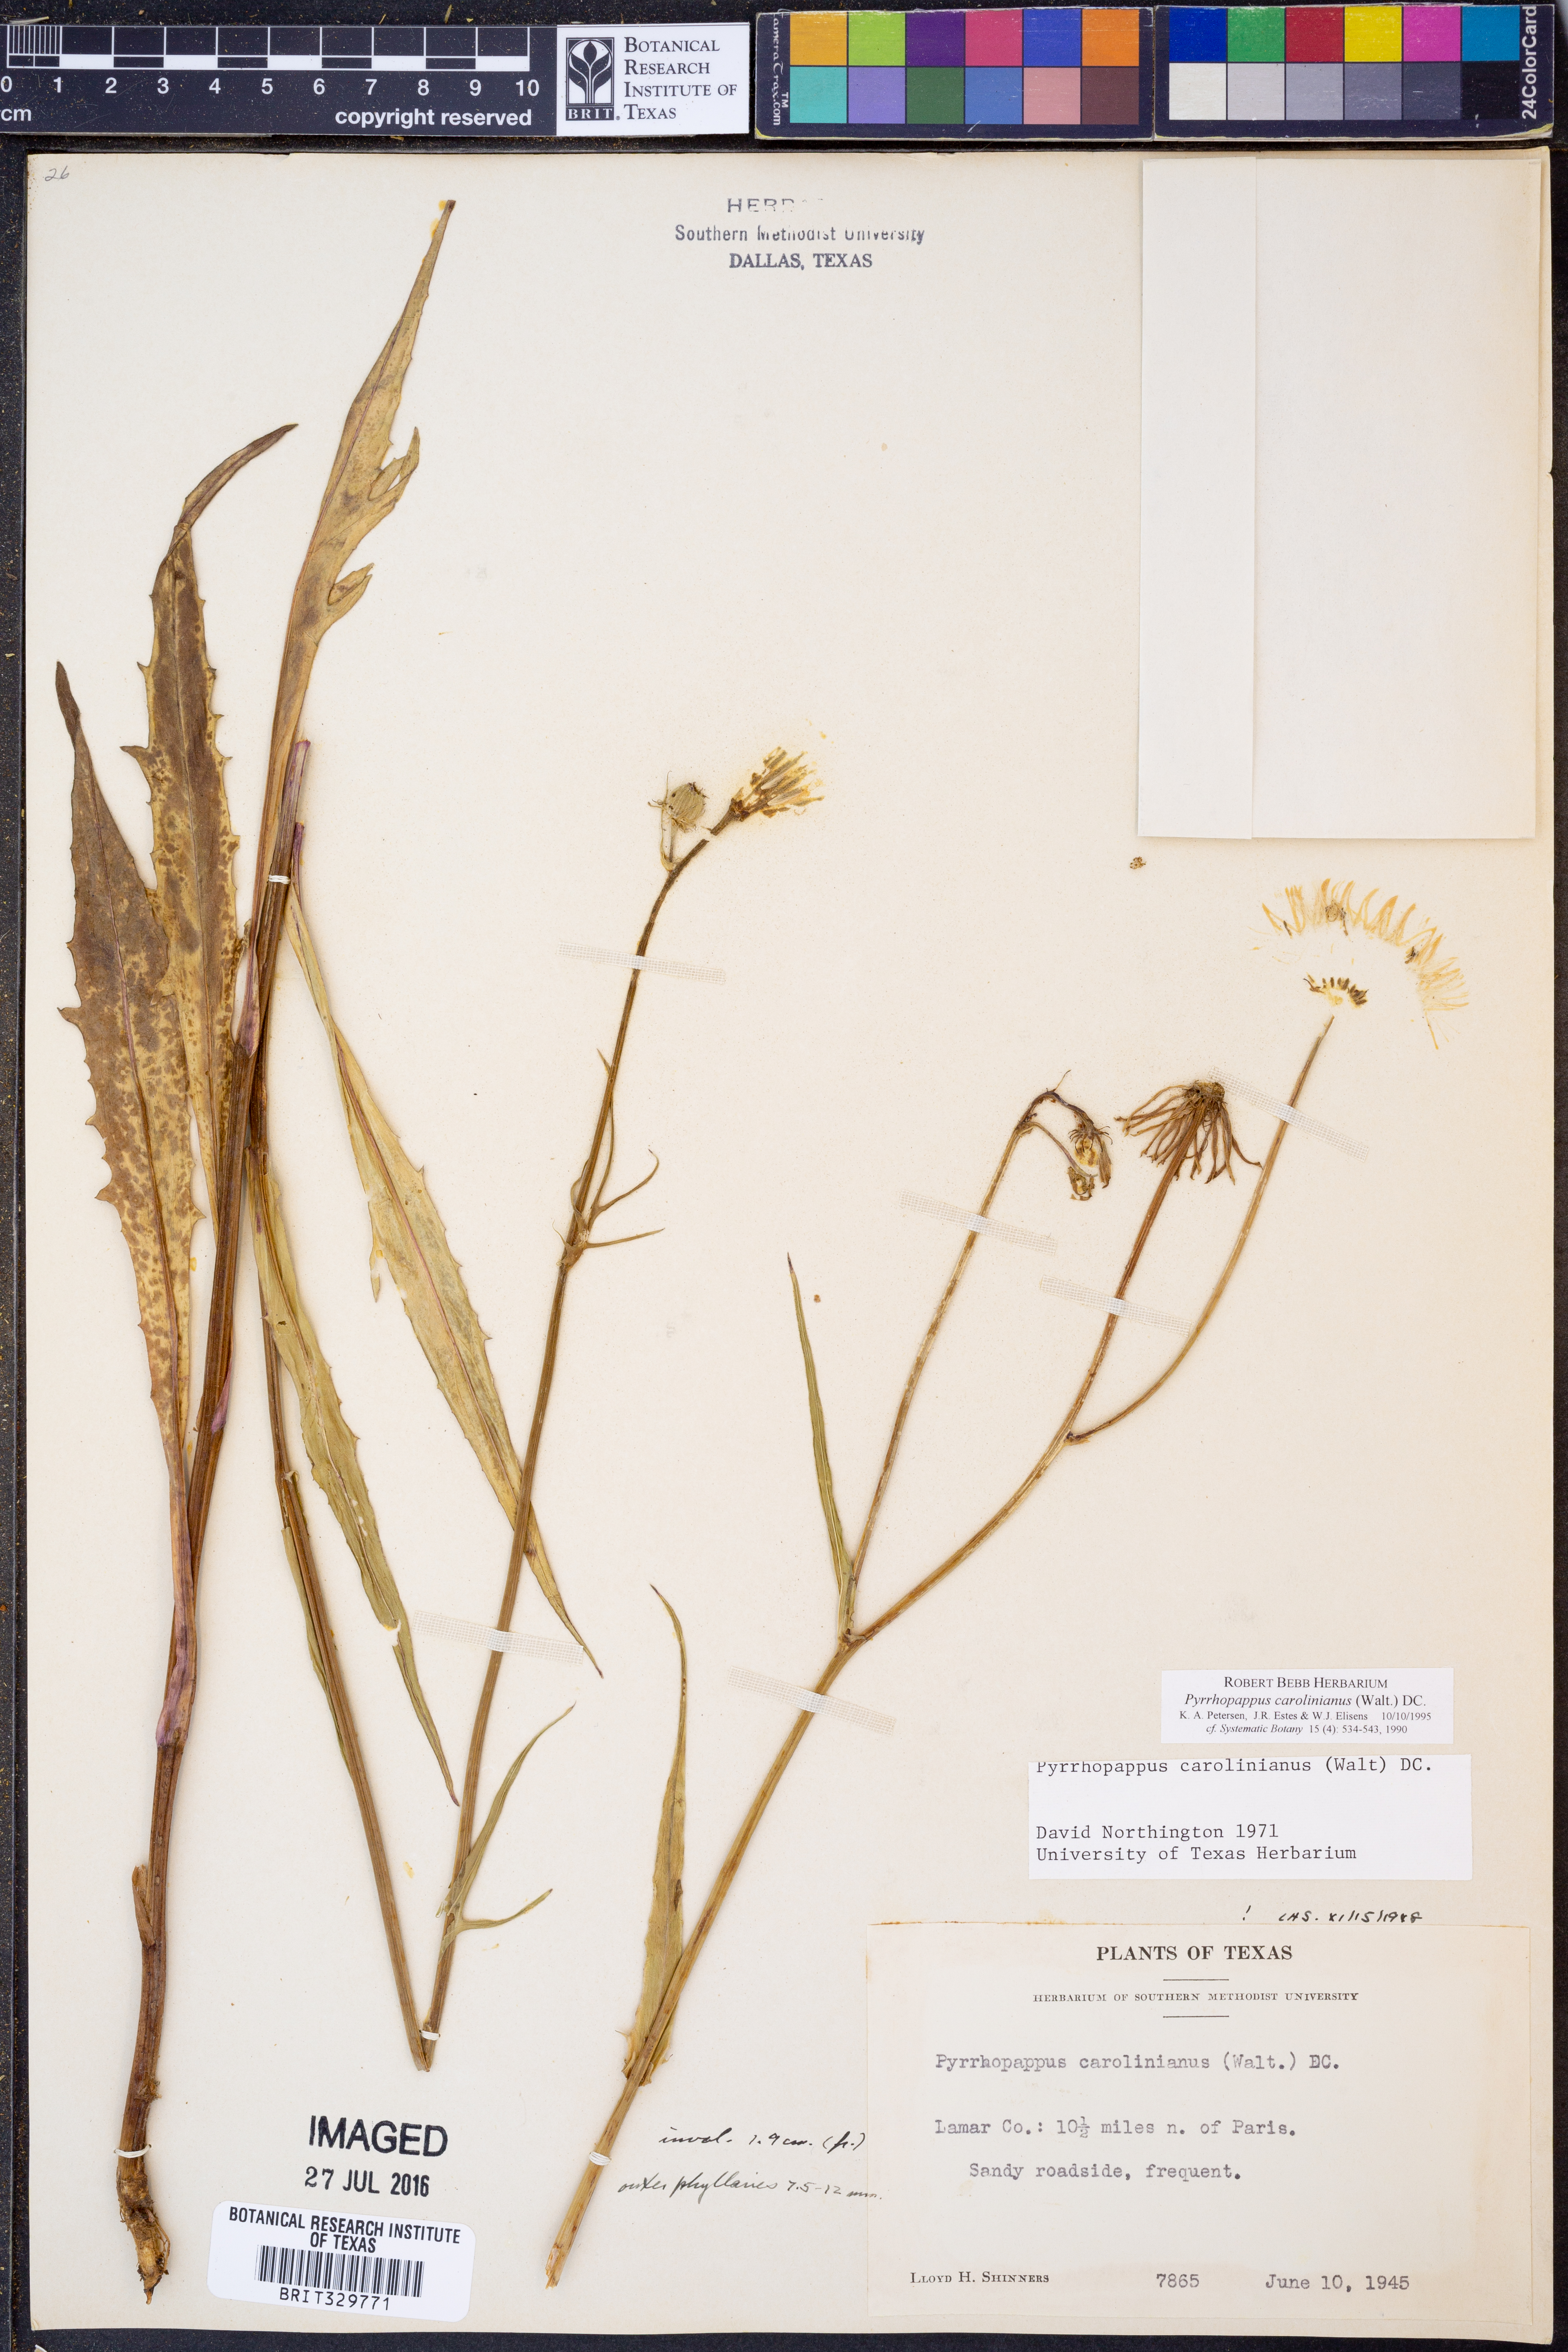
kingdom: Plantae
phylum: Tracheophyta
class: Magnoliopsida
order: Asterales
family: Asteraceae
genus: Pyrrhopappus
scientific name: Pyrrhopappus carolinianus
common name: Carolina desert-chicory
